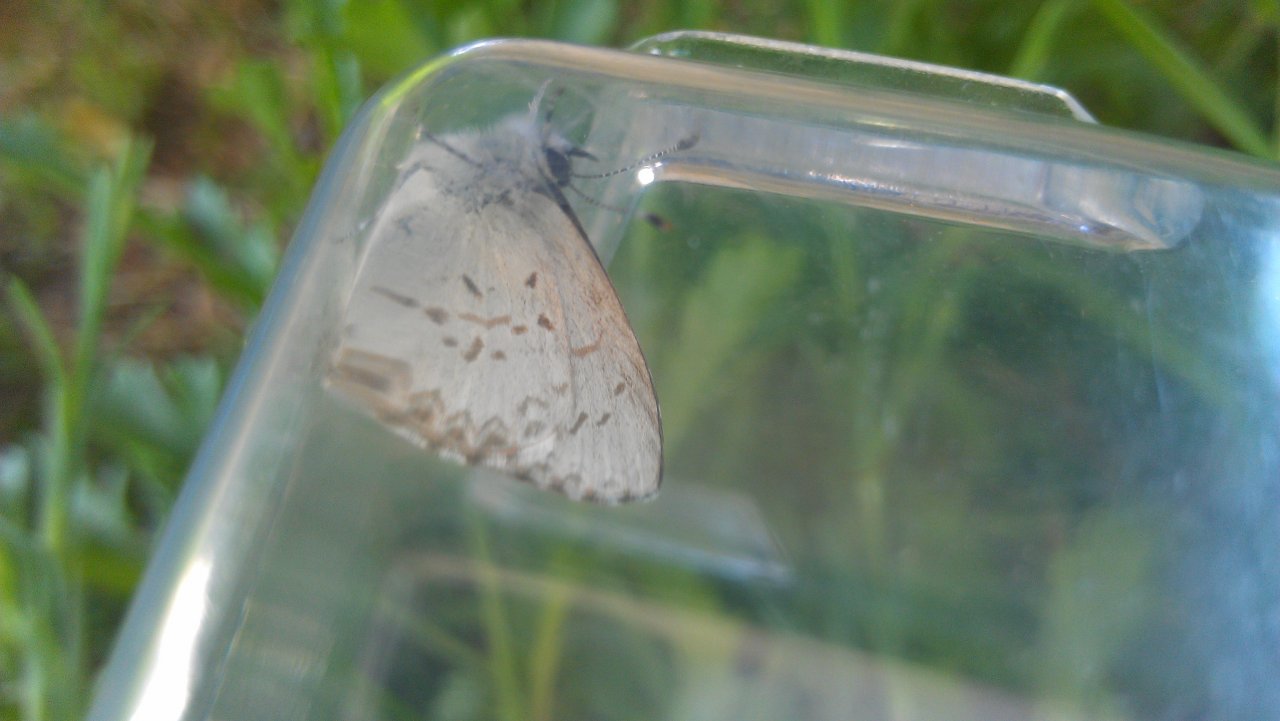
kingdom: Animalia
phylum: Arthropoda
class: Insecta
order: Lepidoptera
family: Lycaenidae
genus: Celastrina
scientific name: Celastrina lucia
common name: Northern Spring Azure
